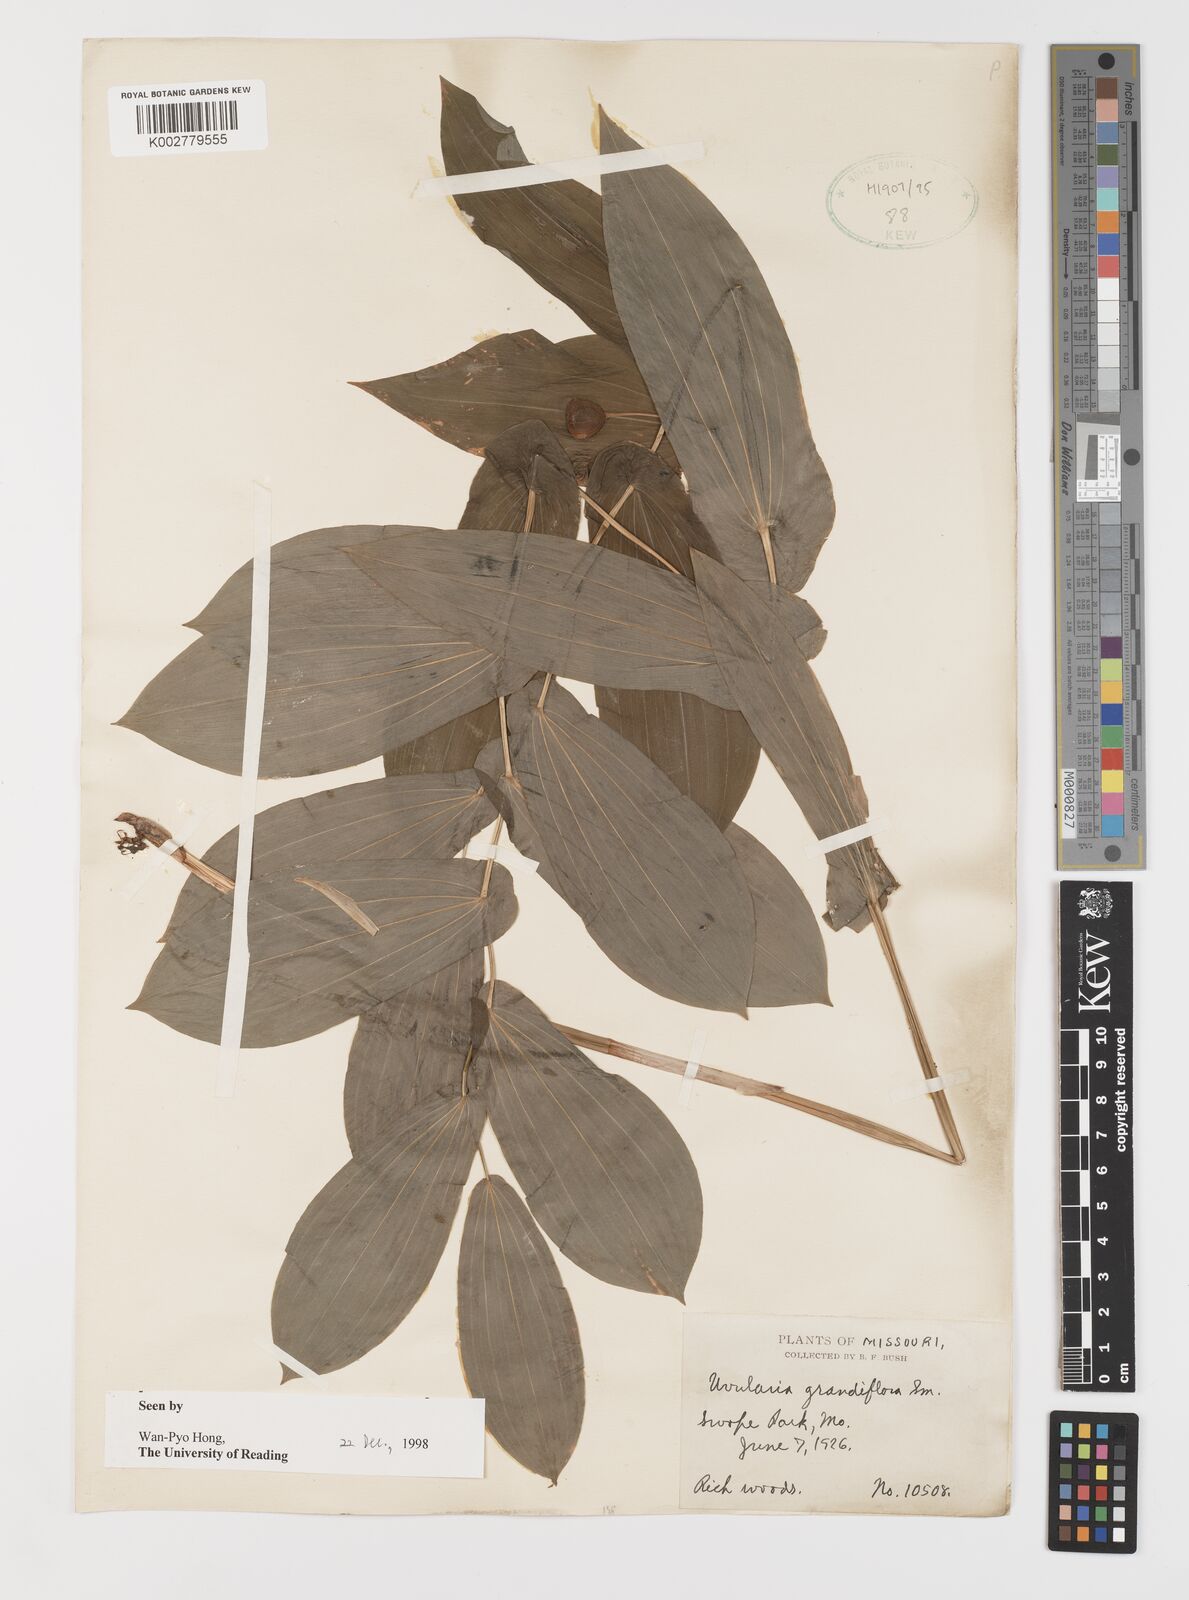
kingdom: Plantae
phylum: Tracheophyta
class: Liliopsida
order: Liliales
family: Colchicaceae
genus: Uvularia
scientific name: Uvularia grandiflora
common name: Bellwort
